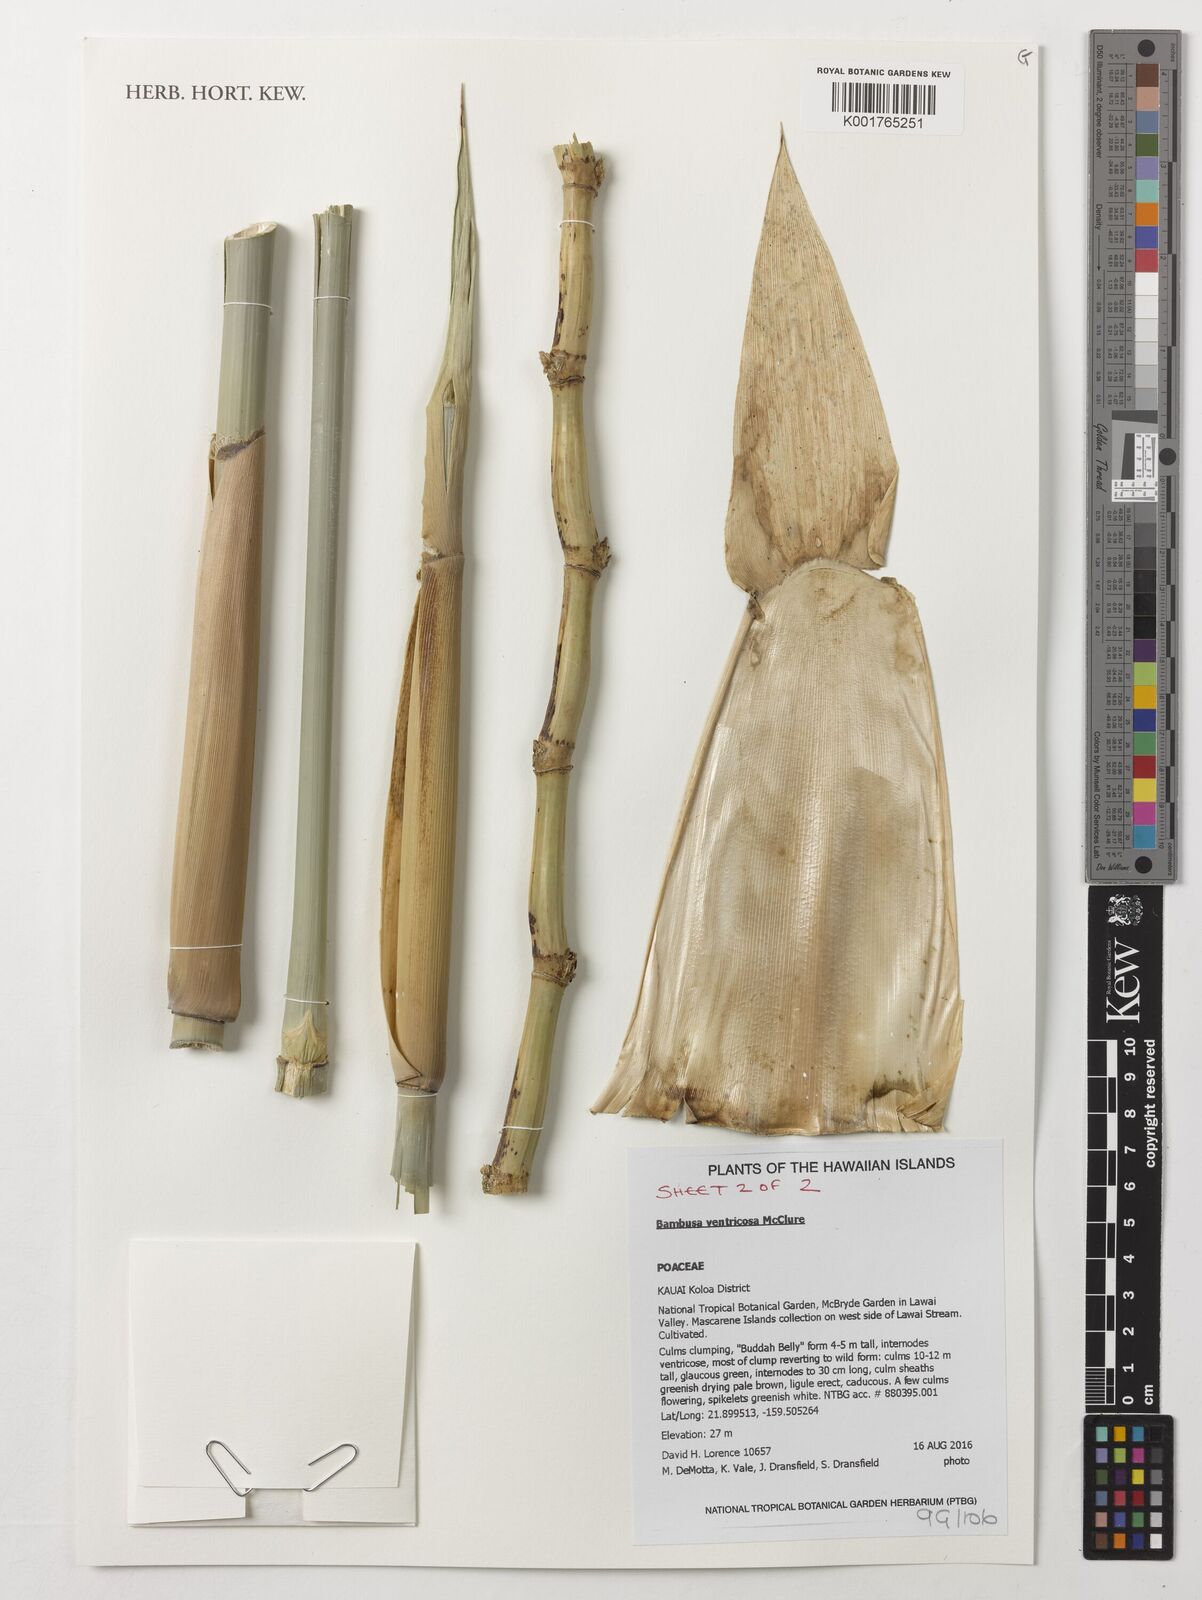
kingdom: Plantae
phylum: Tracheophyta
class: Liliopsida
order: Poales
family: Poaceae
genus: Bambusa
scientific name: Bambusa ventricosa
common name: Buddha bamboo
